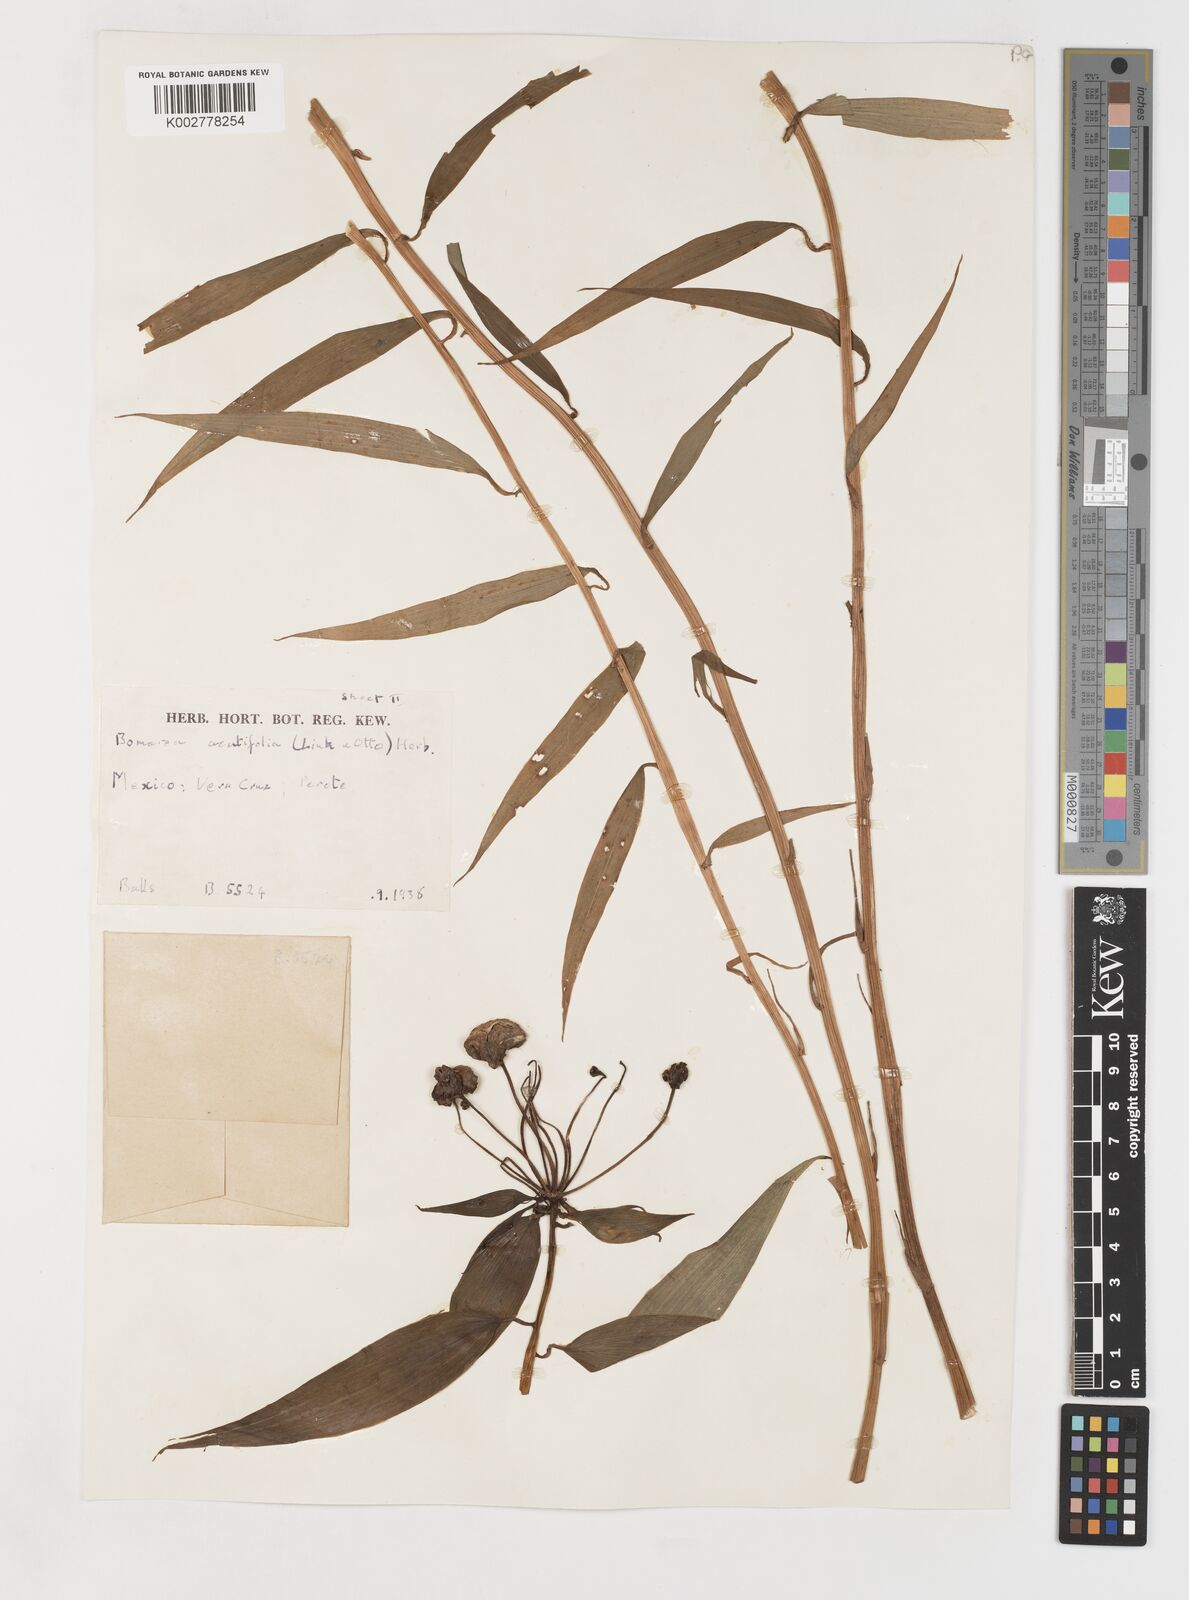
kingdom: Plantae
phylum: Tracheophyta
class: Liliopsida
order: Liliales
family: Alstroemeriaceae
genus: Bomarea
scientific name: Bomarea acutifolia
